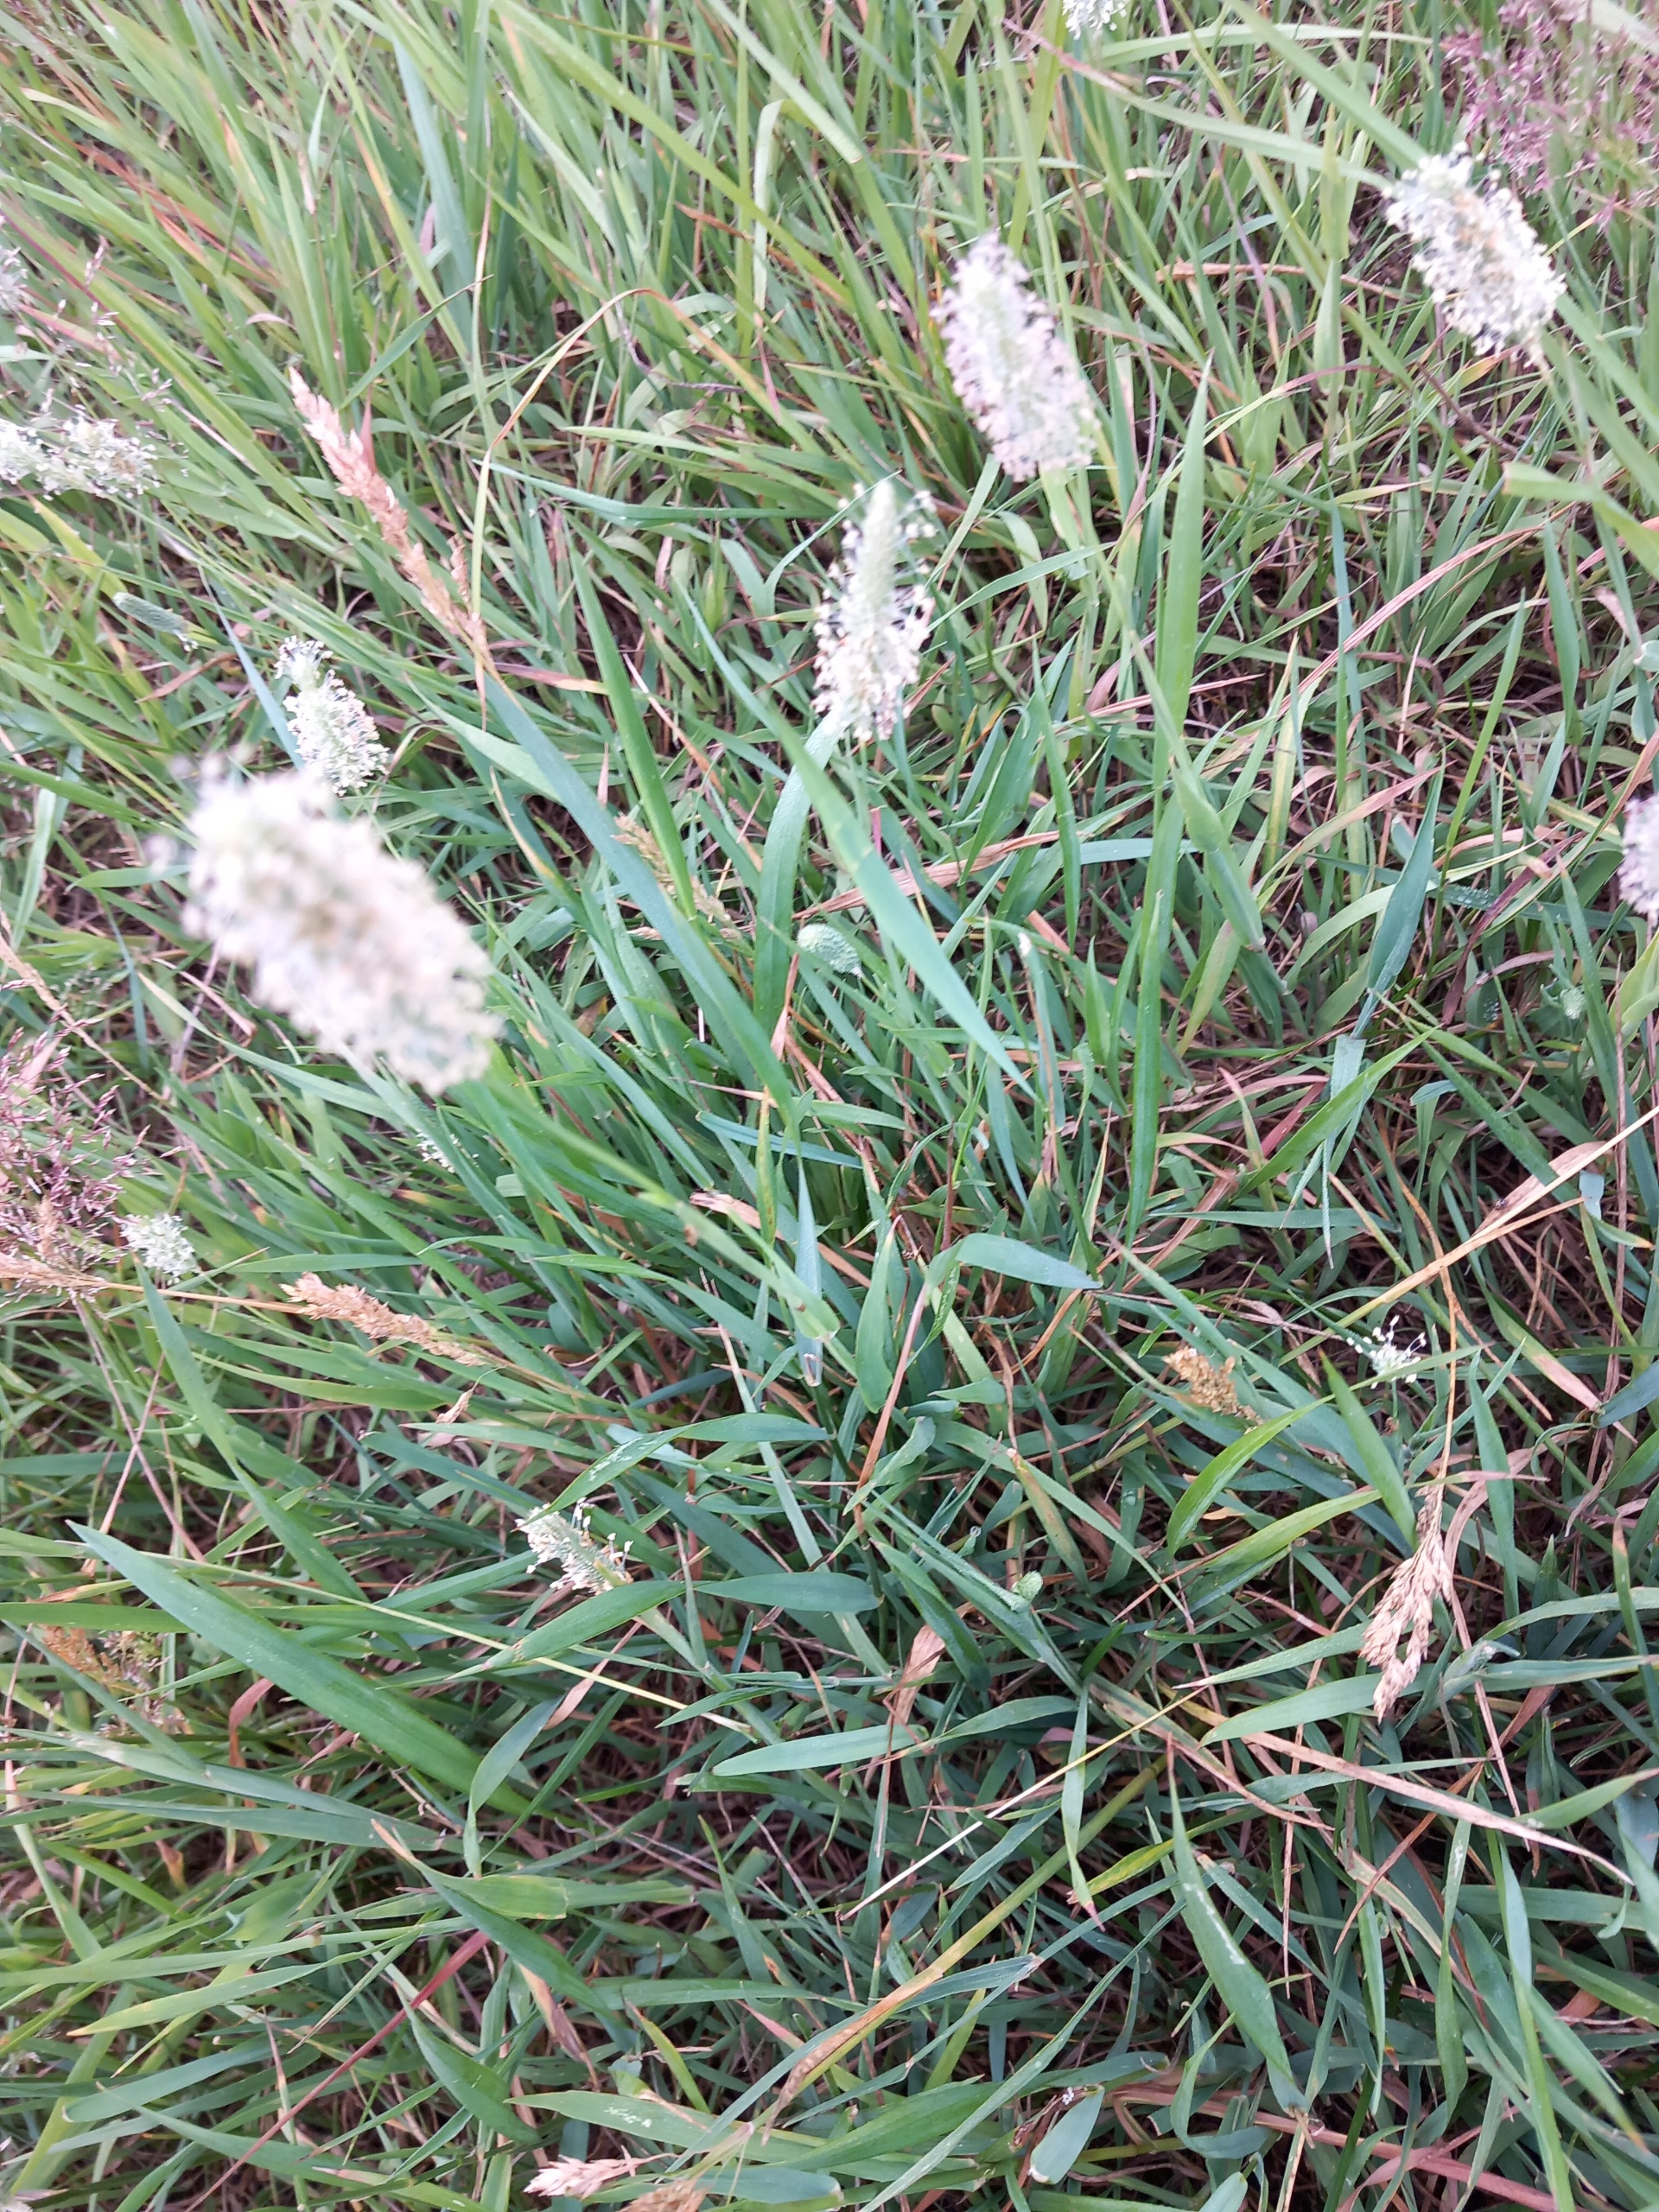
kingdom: Plantae
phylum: Tracheophyta
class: Liliopsida
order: Poales
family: Poaceae
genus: Phleum
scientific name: Phleum pratense
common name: Eng-rottehale
